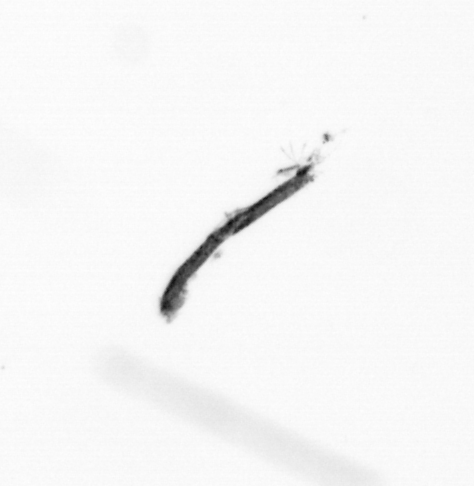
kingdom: Bacteria
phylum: Cyanobacteria
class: Cyanobacteriia
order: Cyanobacteriales
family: Microcoleaceae
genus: Trichodesmium
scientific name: Trichodesmium
